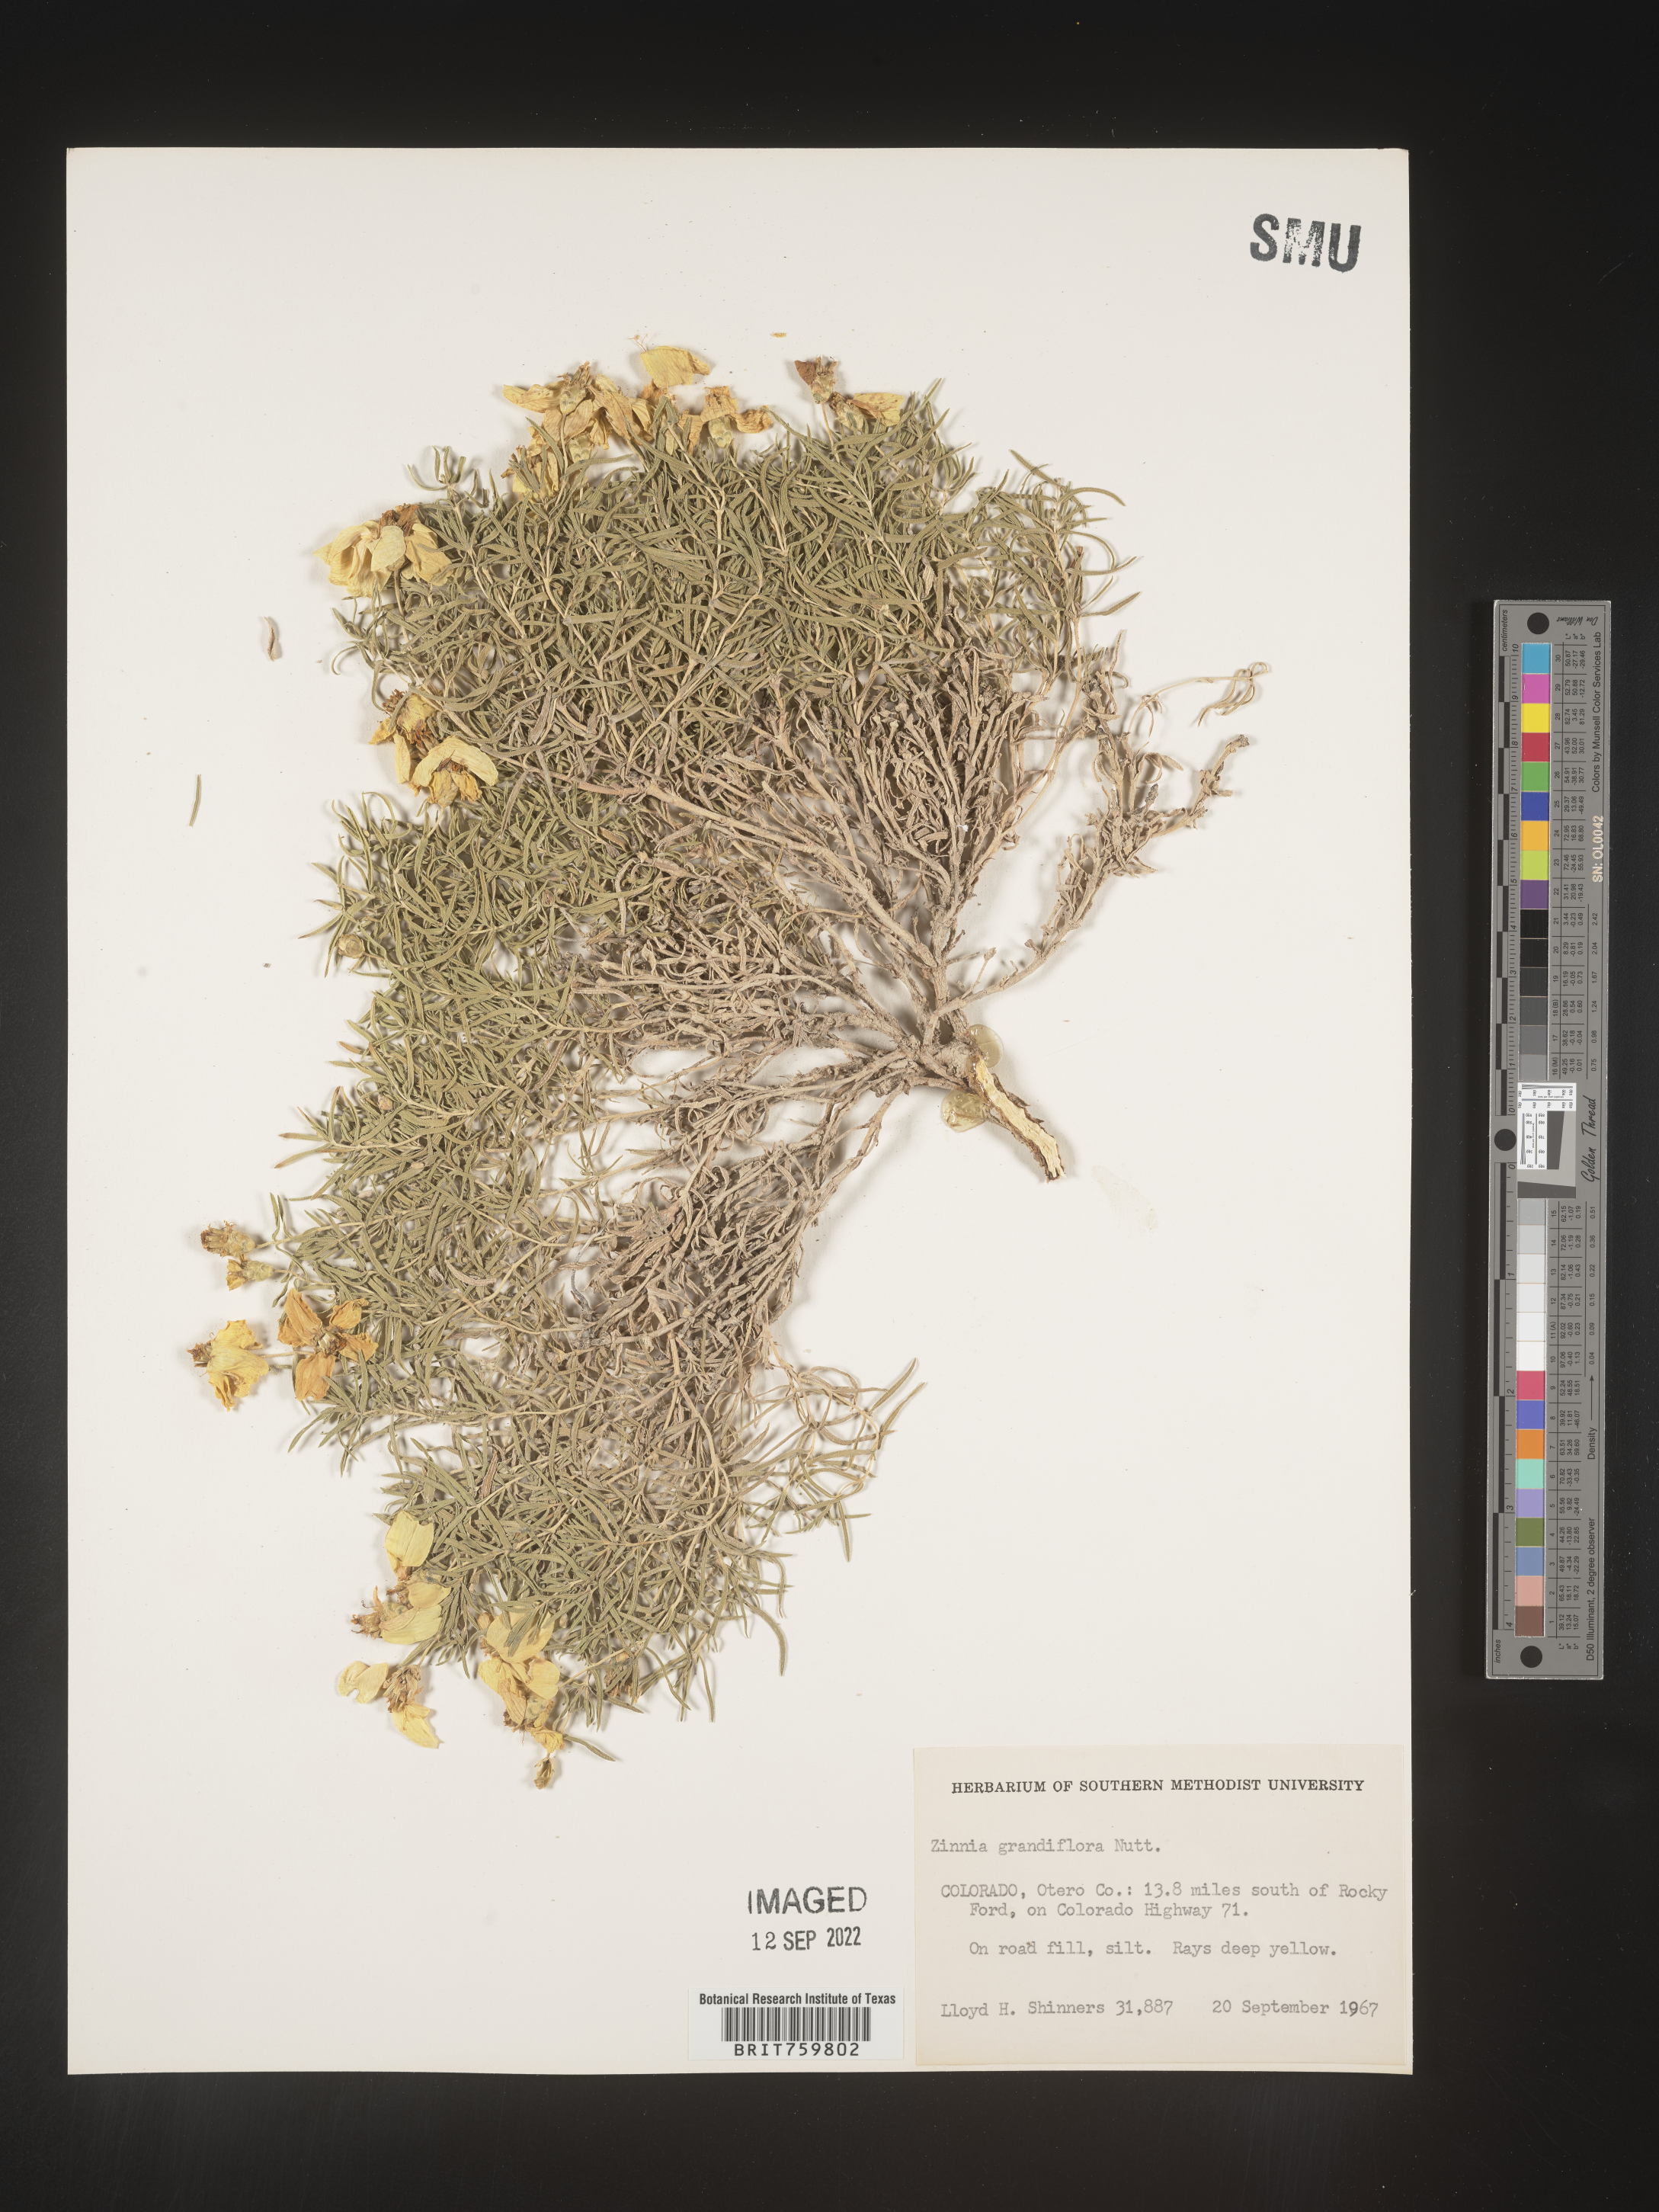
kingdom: Plantae
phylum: Tracheophyta
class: Magnoliopsida
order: Asterales
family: Asteraceae
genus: Zinnia
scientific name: Zinnia grandiflora
